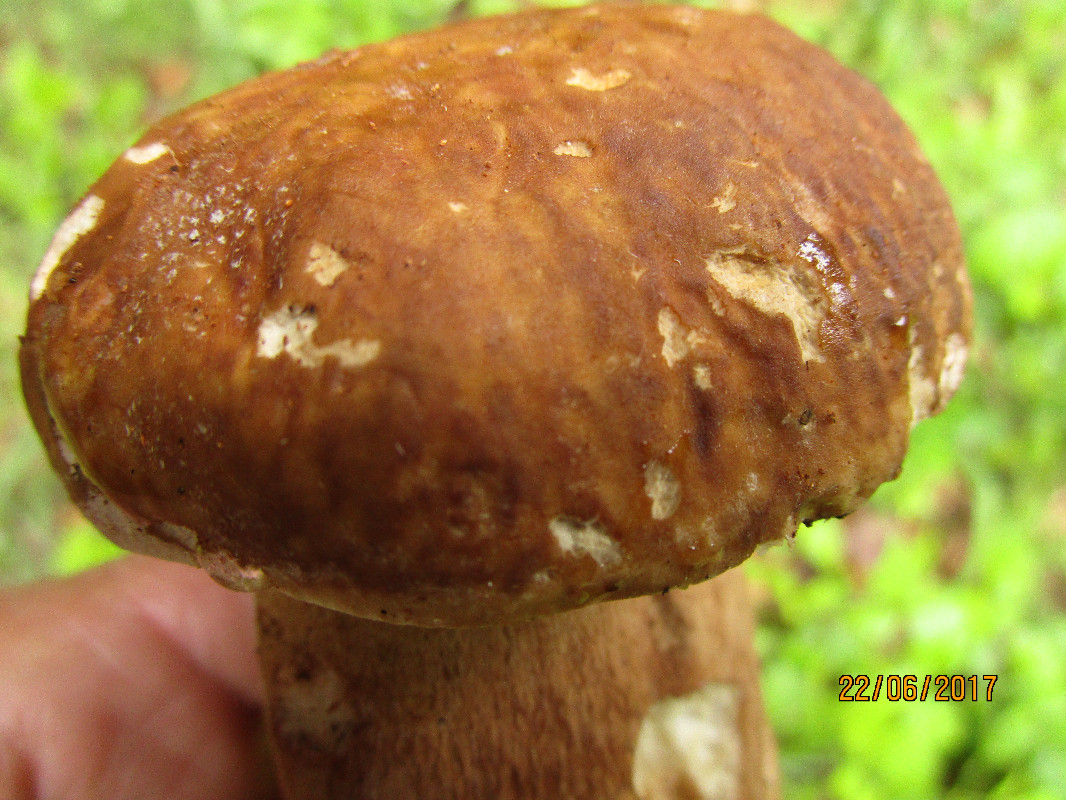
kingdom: Fungi
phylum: Basidiomycota
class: Agaricomycetes
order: Boletales
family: Boletaceae
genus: Boletus
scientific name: Boletus reticulatus
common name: sommer-rørhat
